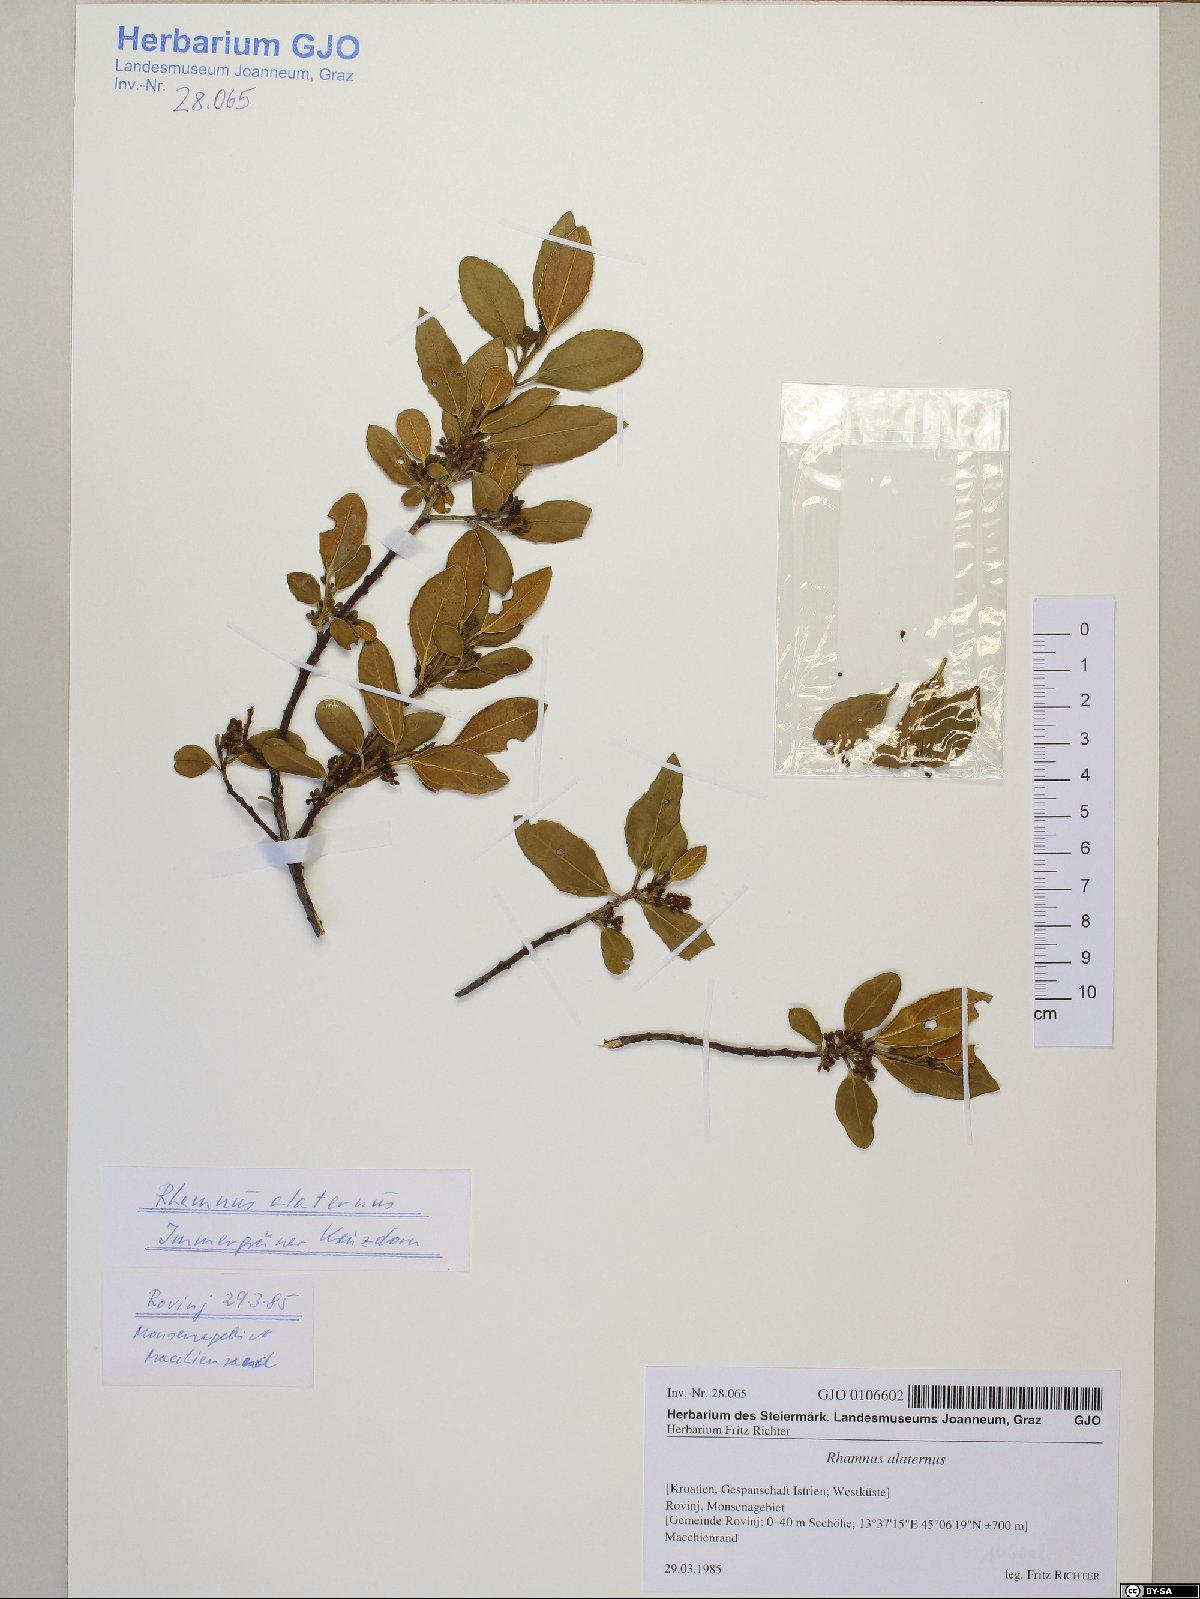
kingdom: Plantae
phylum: Tracheophyta
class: Magnoliopsida
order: Rosales
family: Rhamnaceae
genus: Rhamnus
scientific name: Rhamnus alaternus
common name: Mediterranean buckthorn
